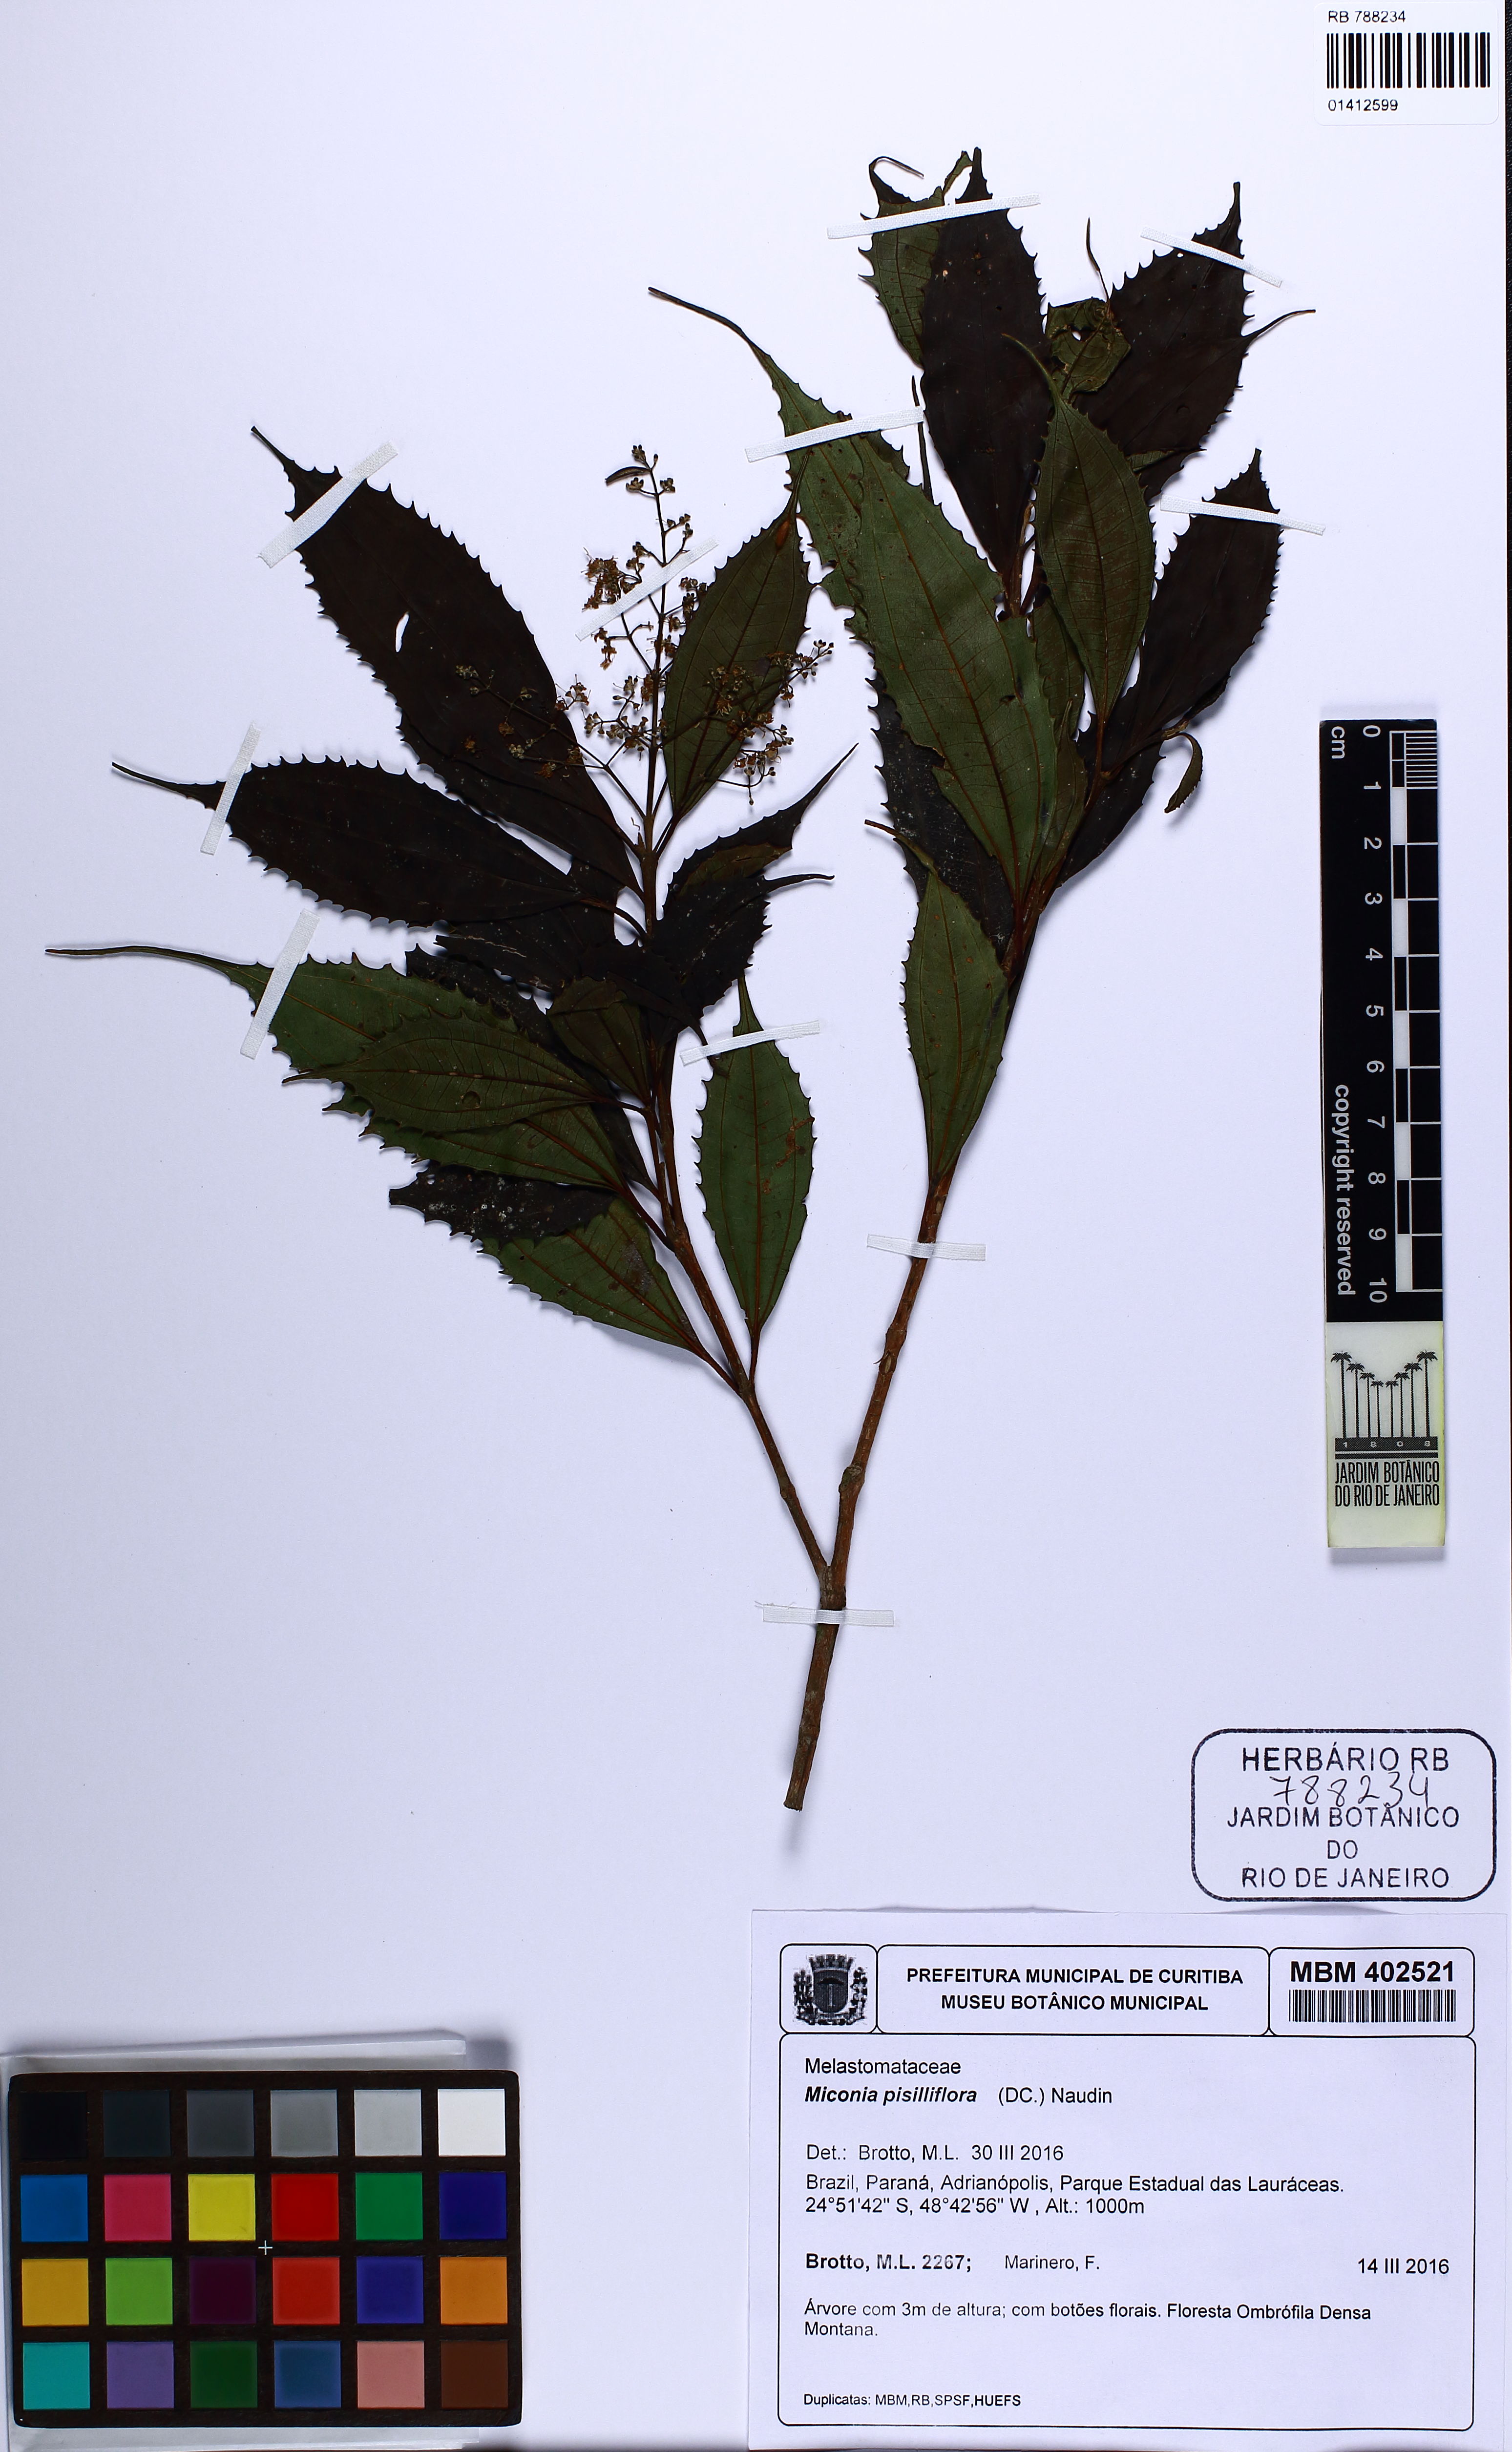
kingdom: Plantae
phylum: Tracheophyta
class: Magnoliopsida
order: Myrtales
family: Melastomataceae
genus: Miconia
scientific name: Miconia pisinniflora
